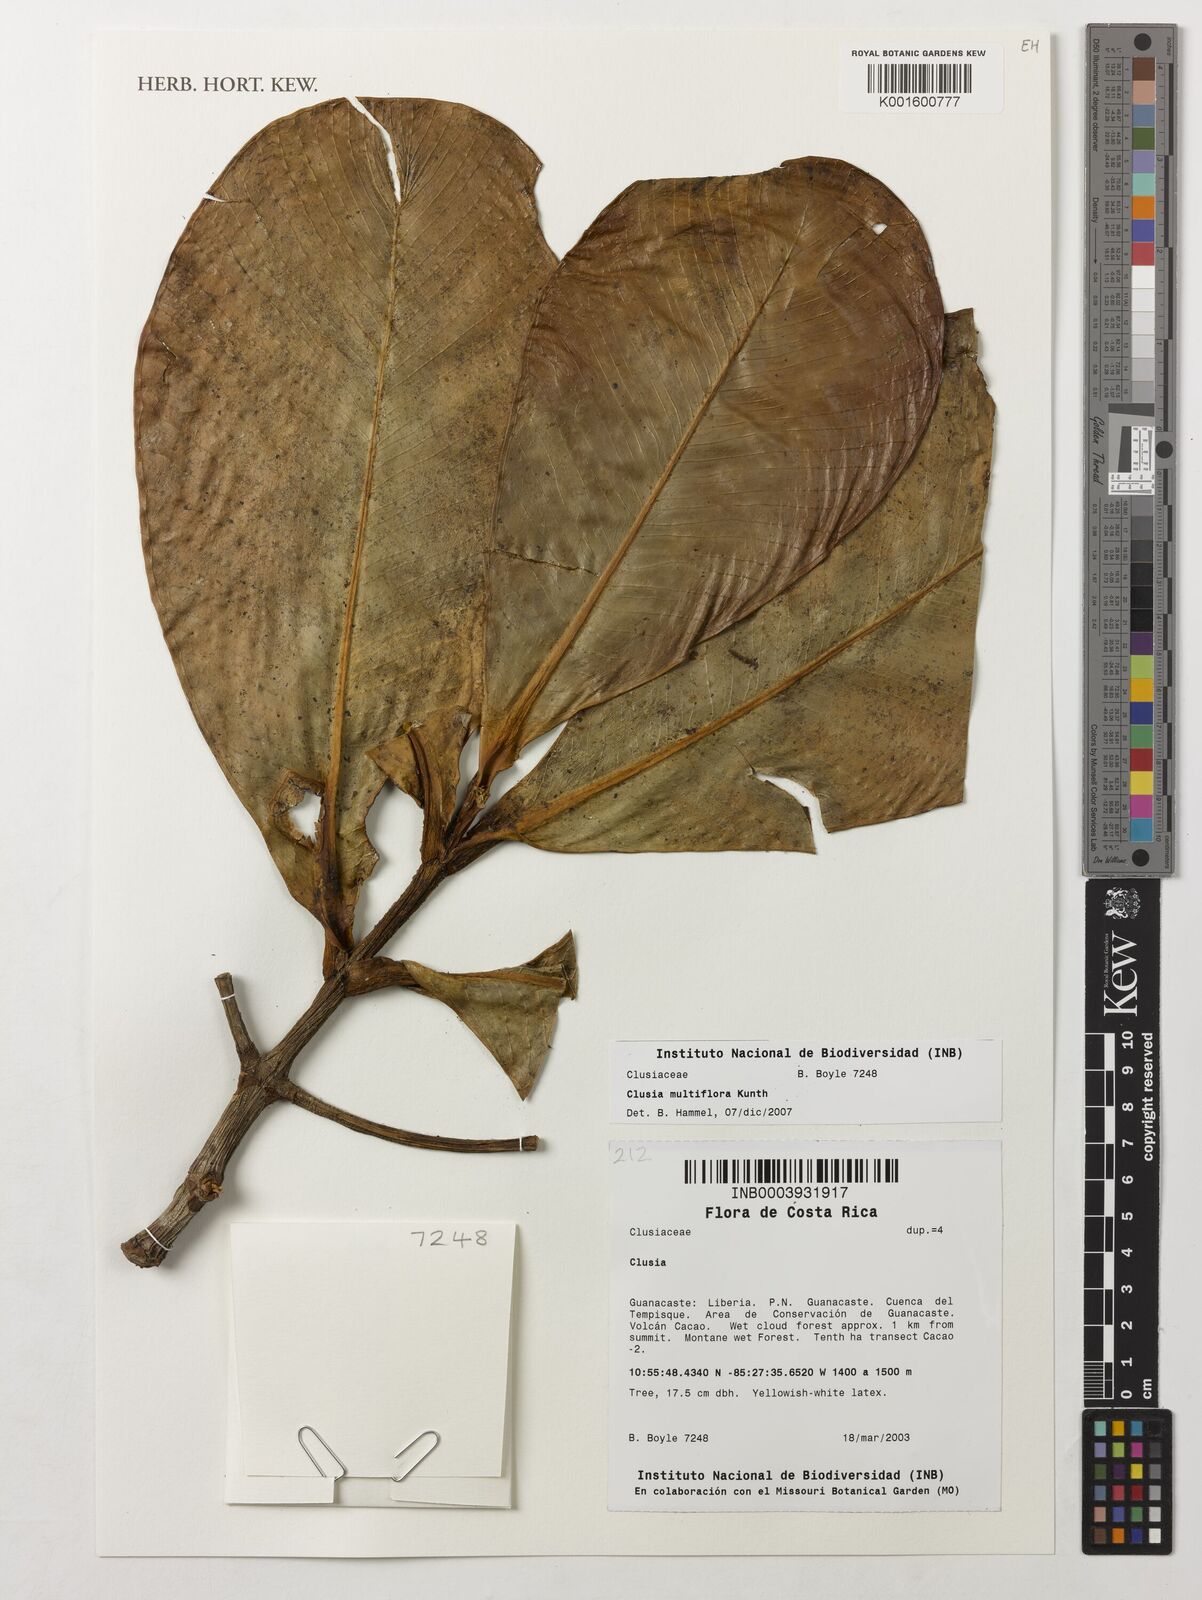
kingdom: Plantae
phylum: Tracheophyta
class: Magnoliopsida
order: Malpighiales
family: Clusiaceae
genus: Clusia
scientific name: Clusia
